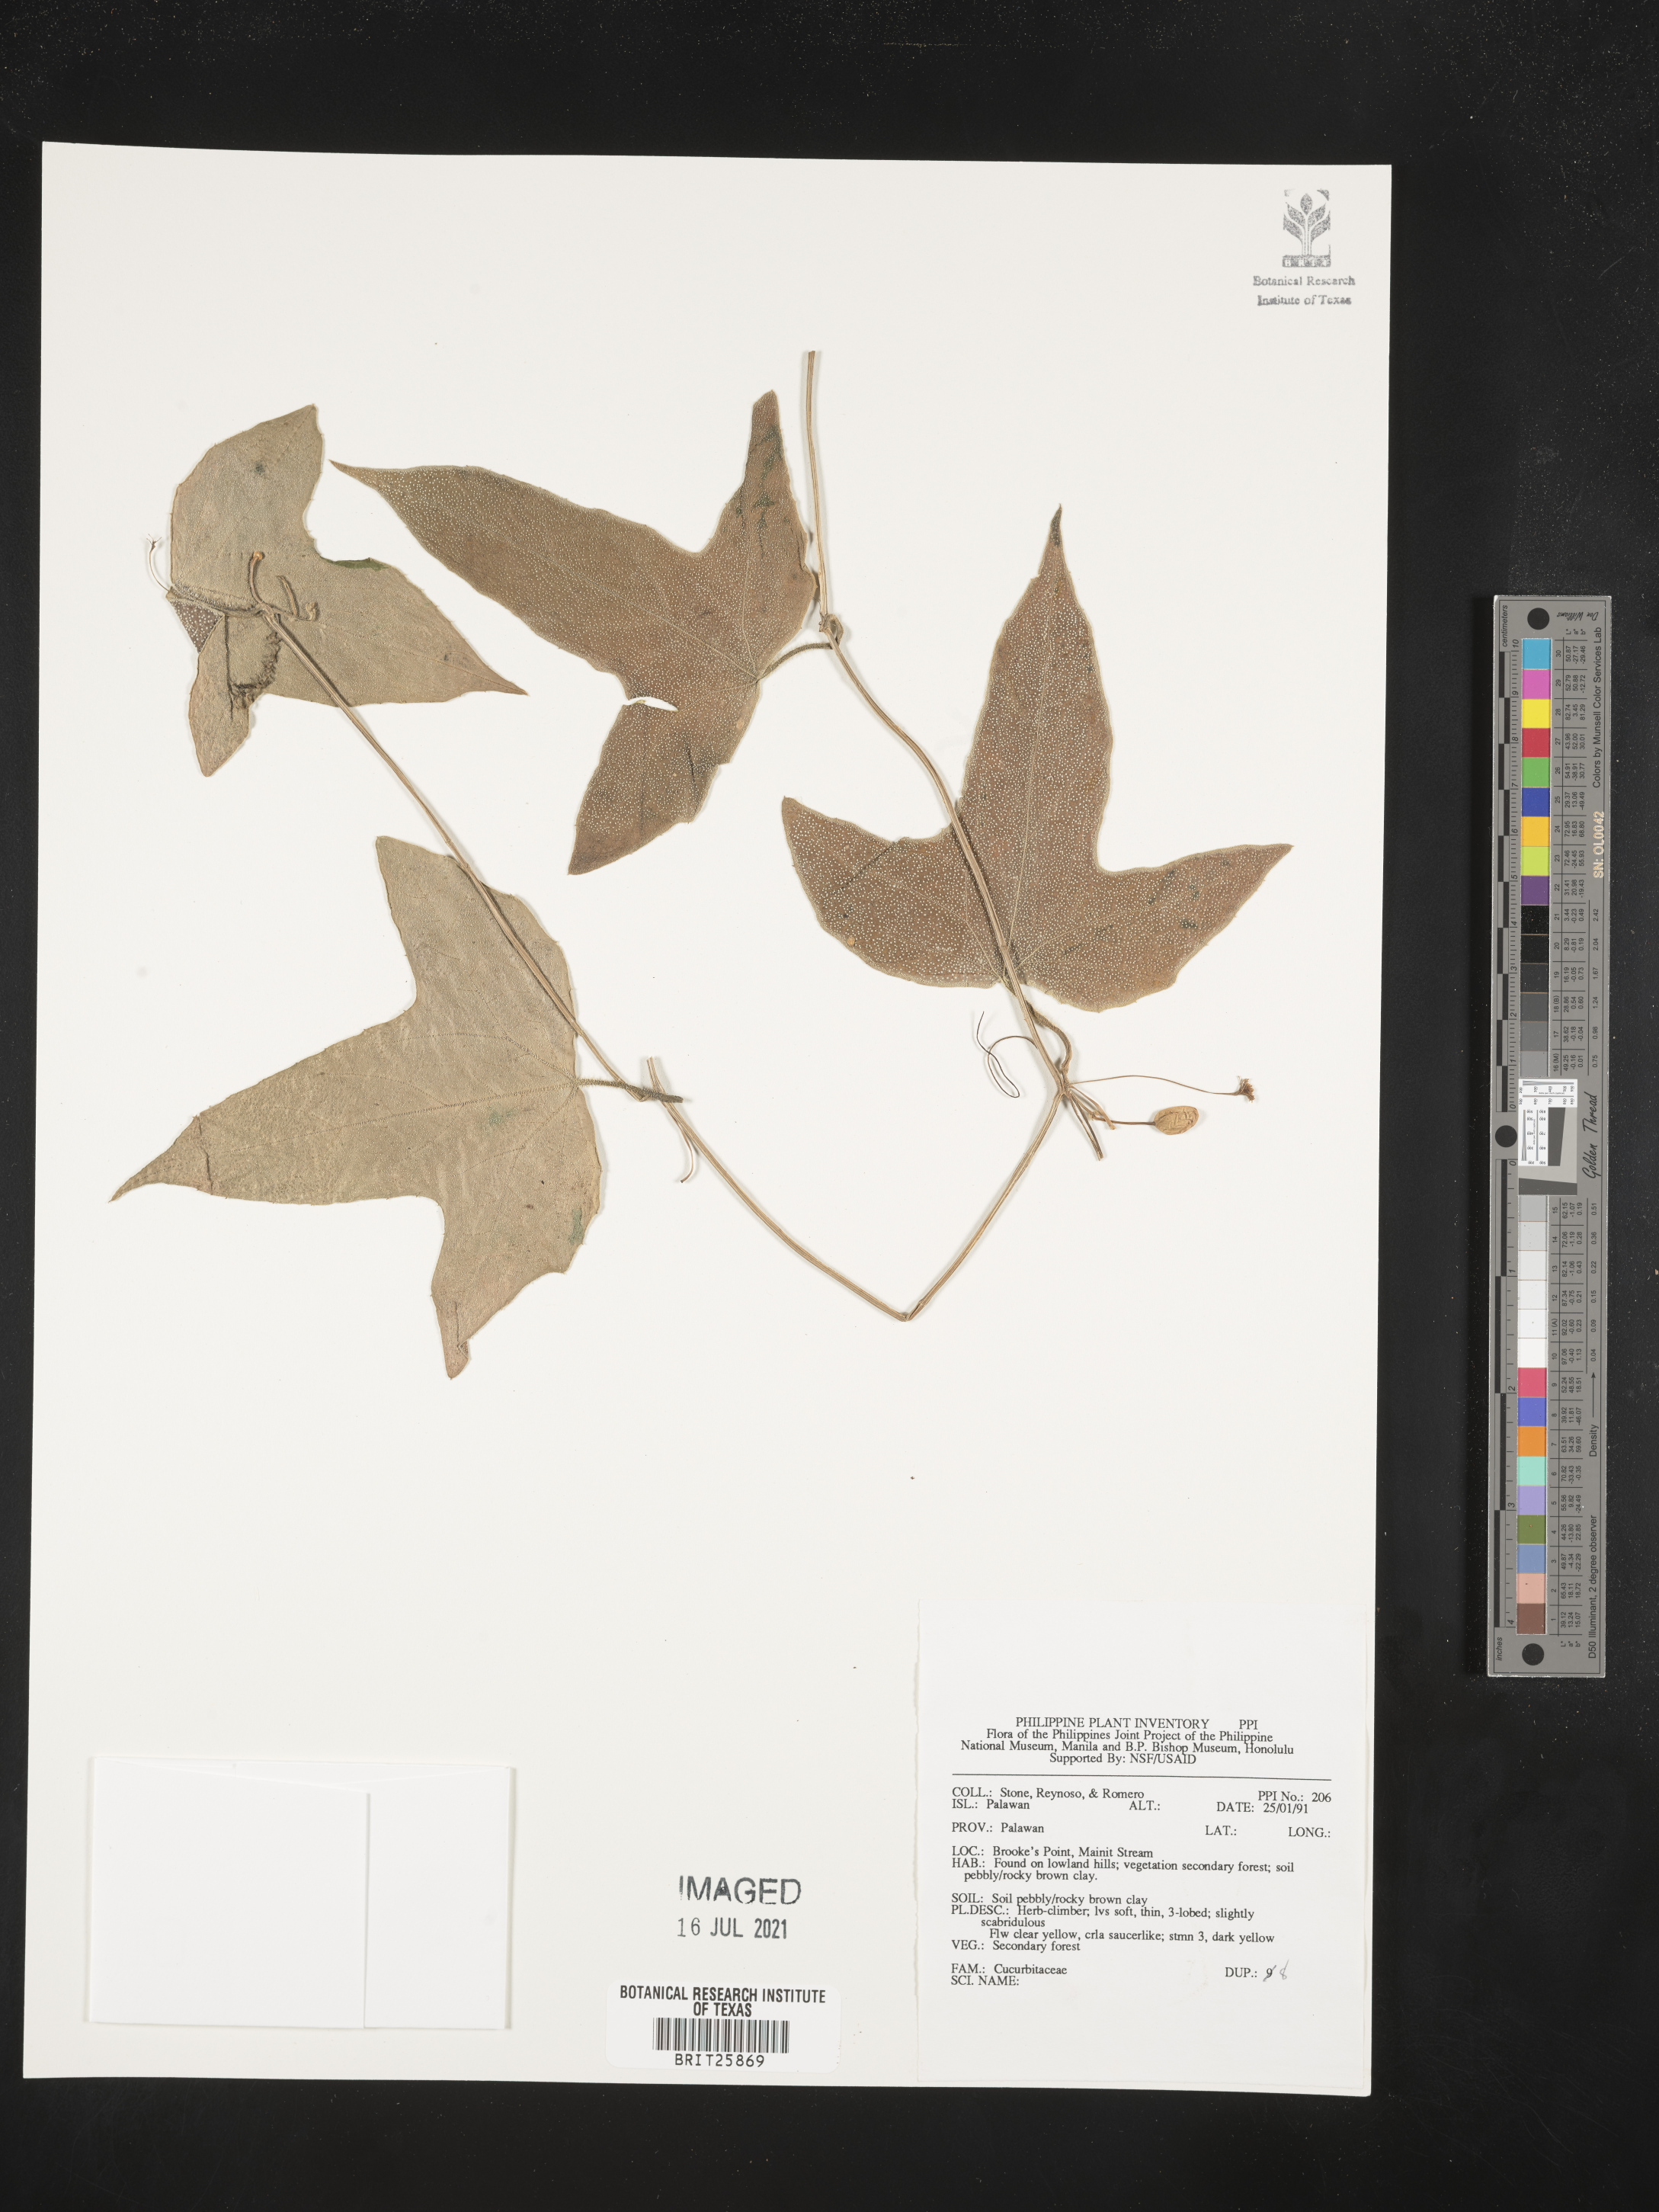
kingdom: Plantae
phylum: Tracheophyta
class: Magnoliopsida
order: Cucurbitales
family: Cucurbitaceae
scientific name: Cucurbitaceae
